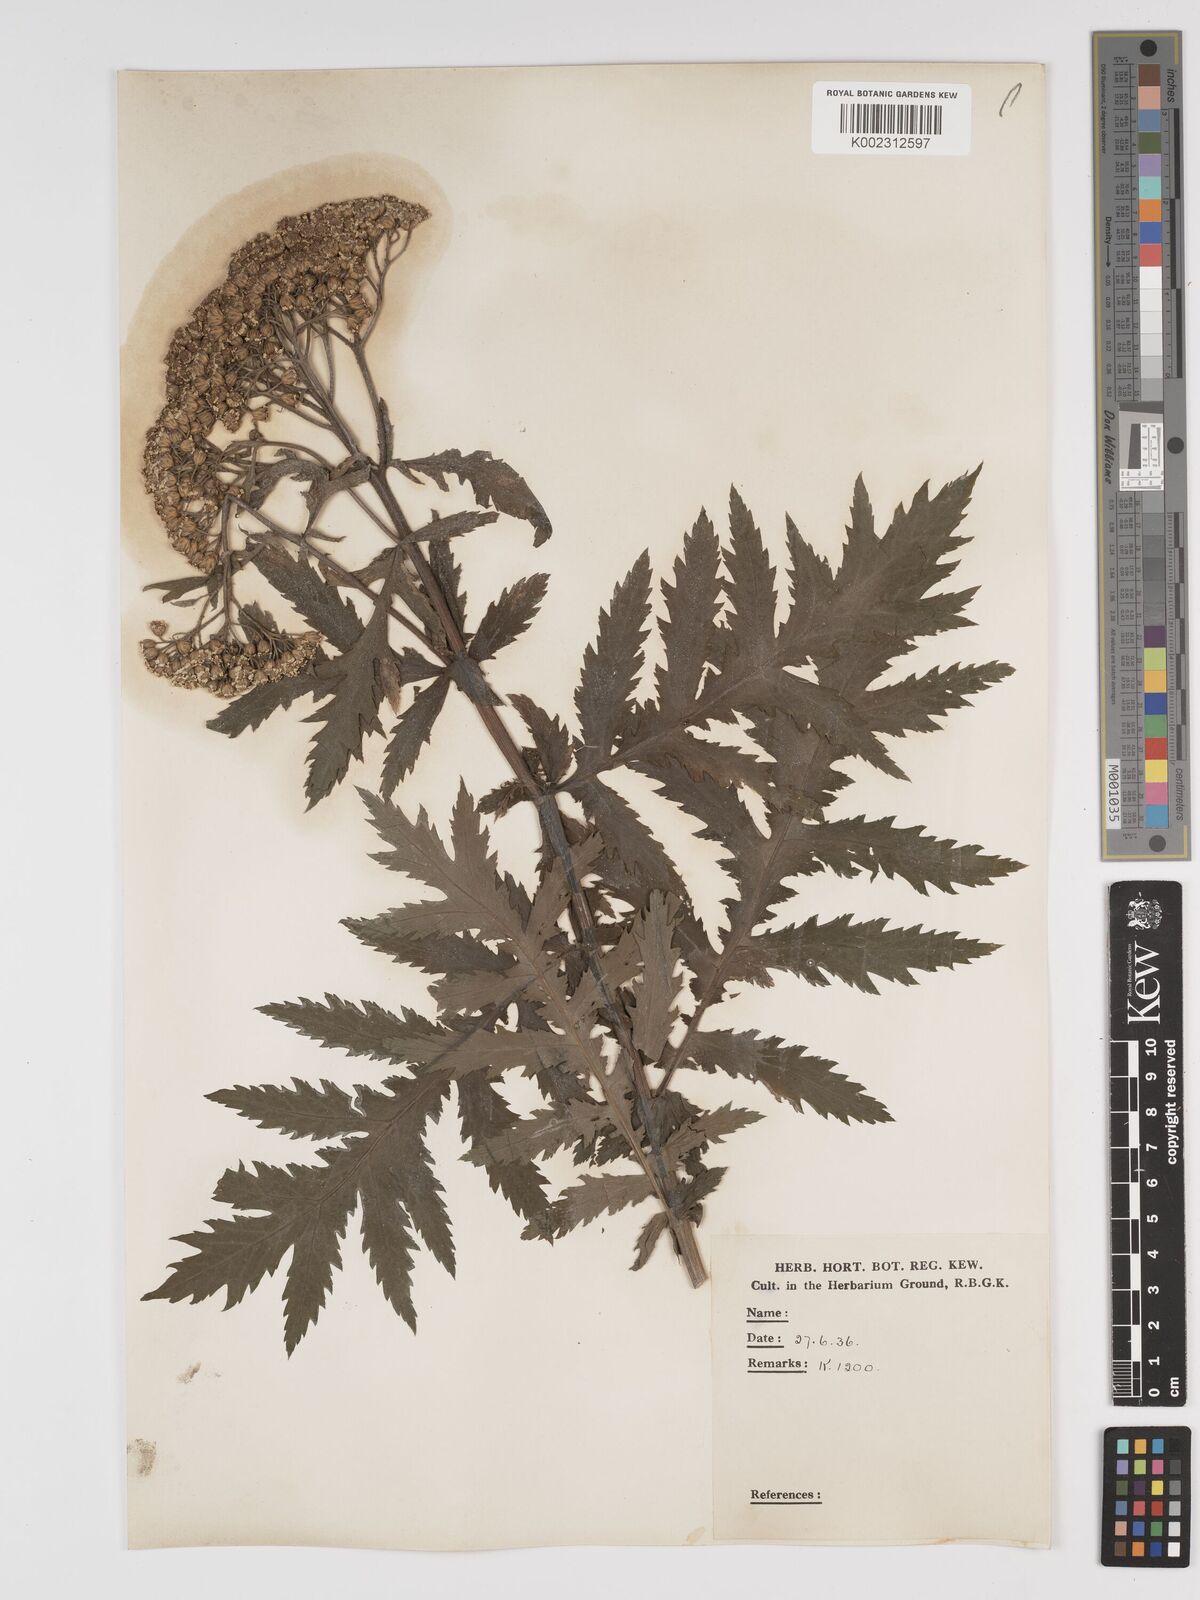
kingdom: Plantae
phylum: Tracheophyta
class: Magnoliopsida
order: Asterales
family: Asteraceae
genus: Tanacetum
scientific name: Tanacetum macrophyllum
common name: Rayed tansy
